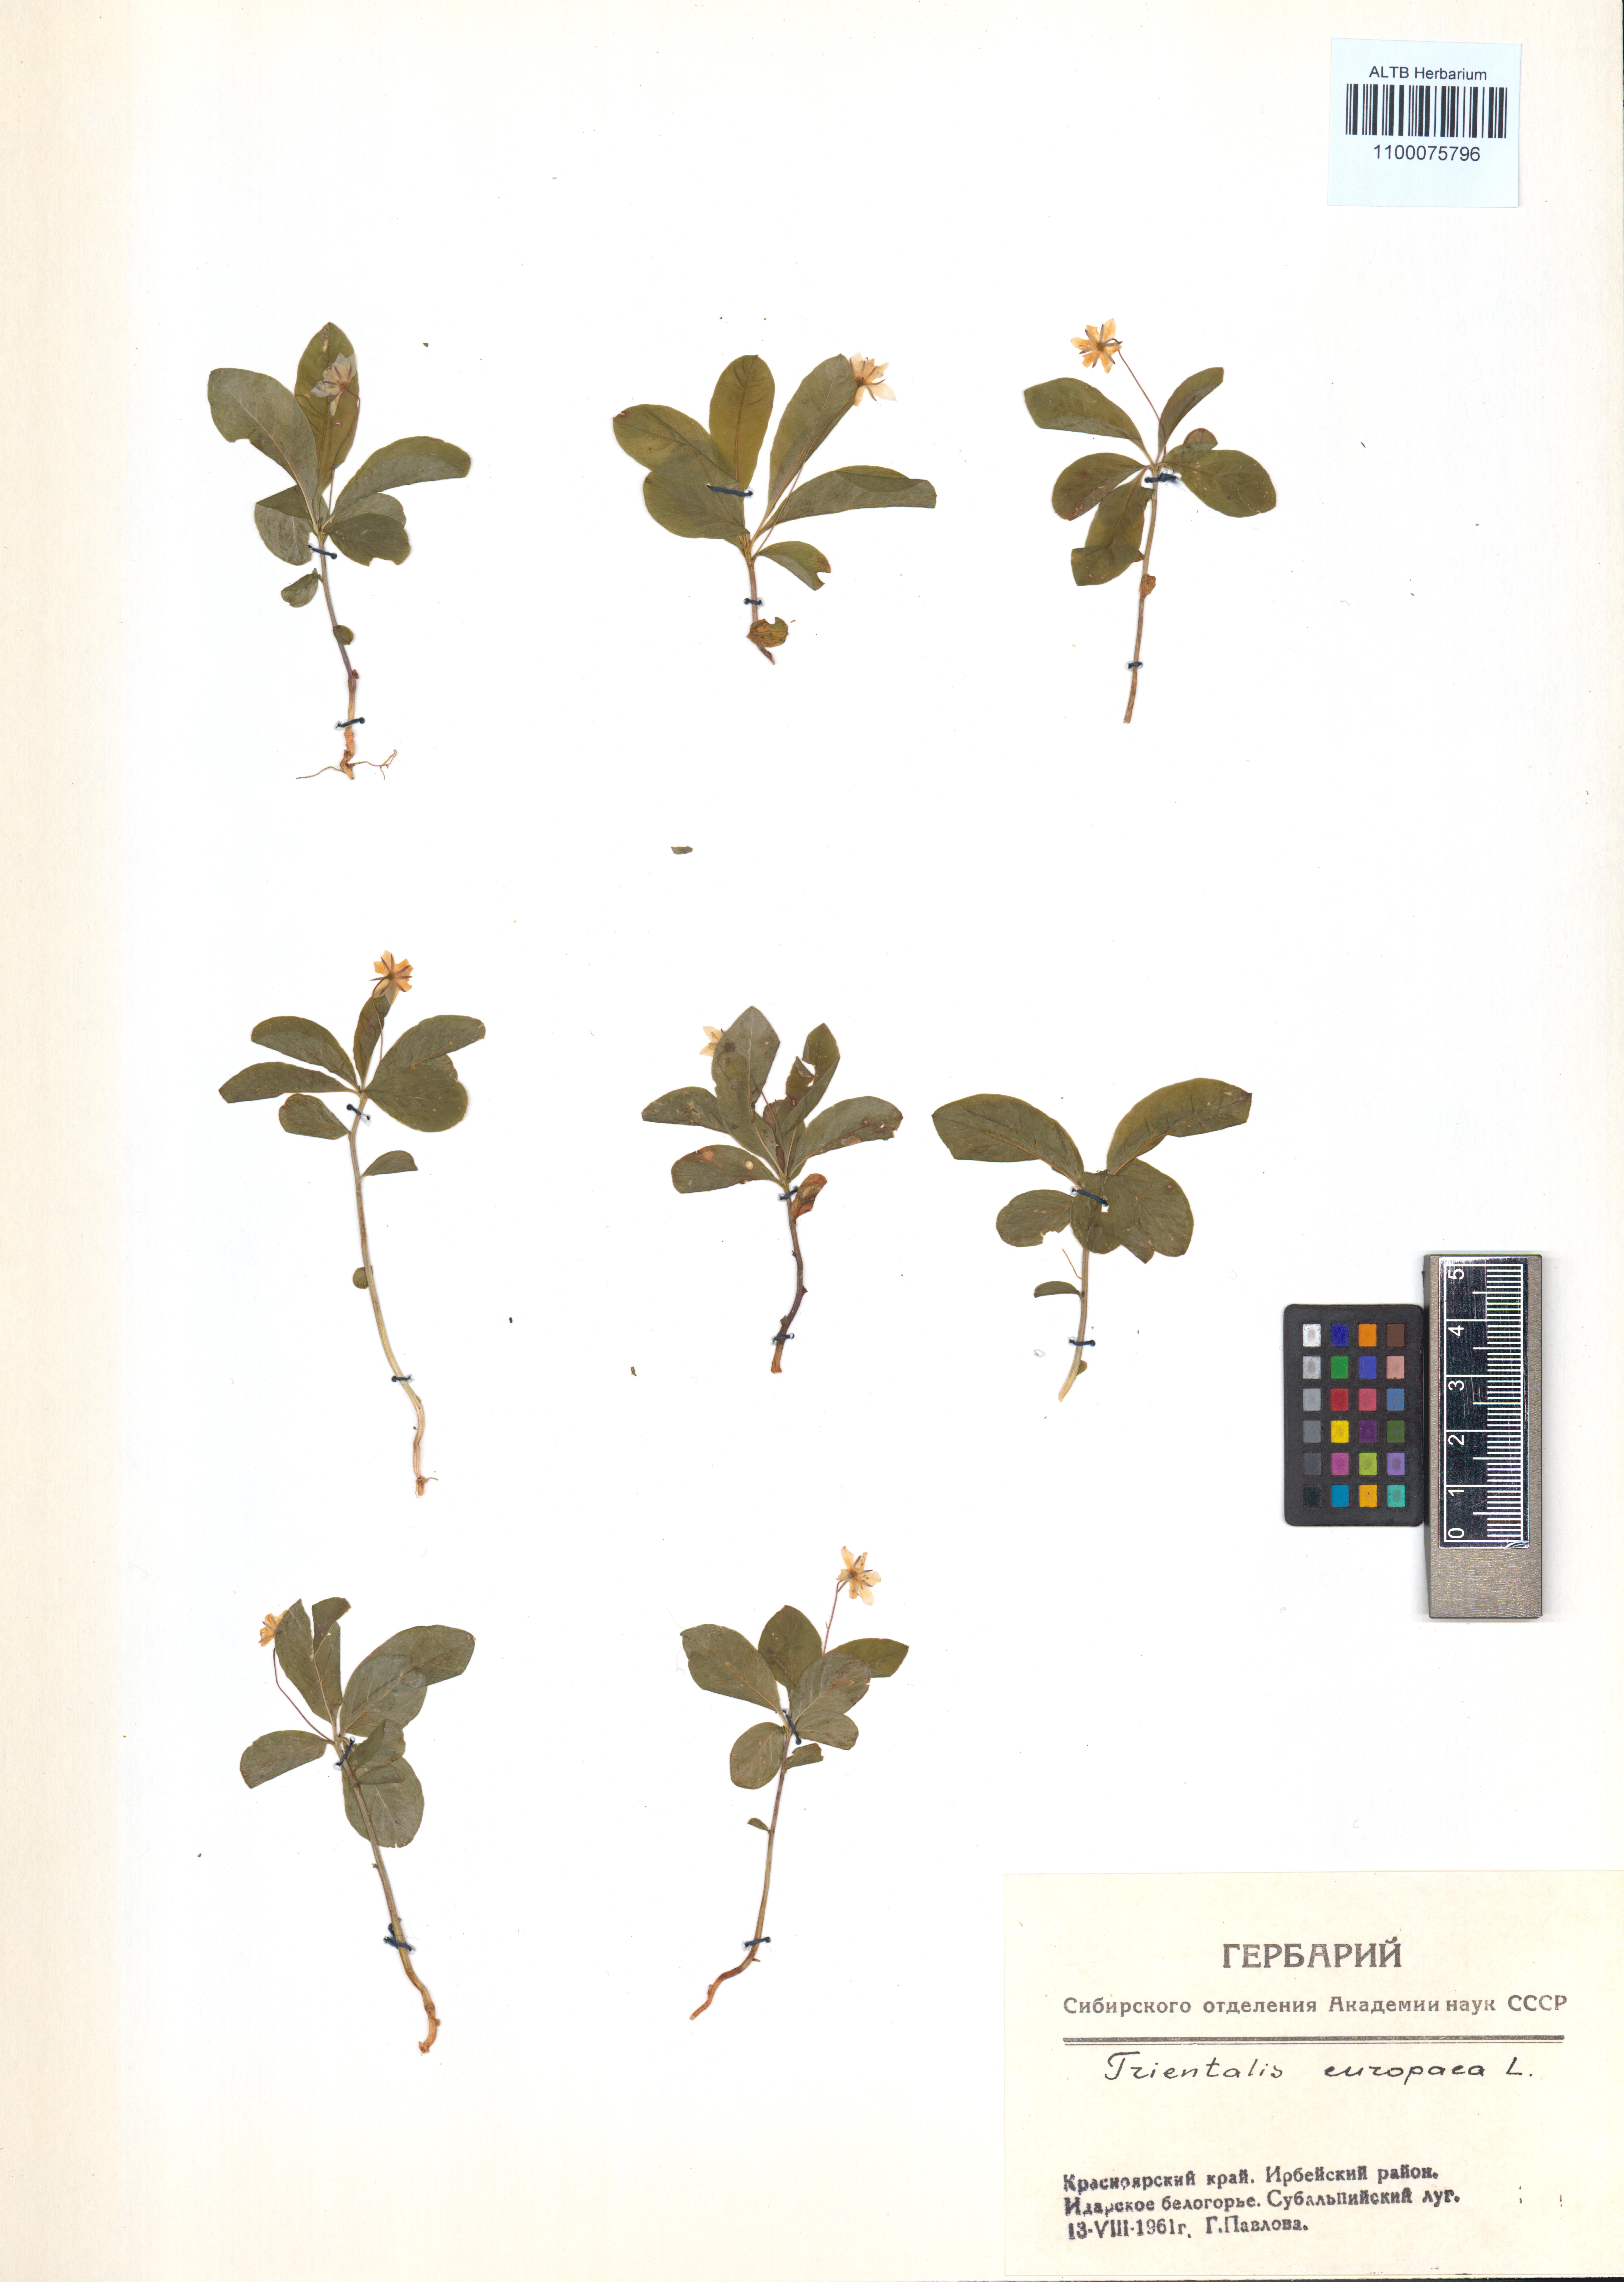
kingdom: Plantae
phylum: Tracheophyta
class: Magnoliopsida
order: Ericales
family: Primulaceae
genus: Lysimachia
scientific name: Lysimachia europaea
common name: Arctic starflower
